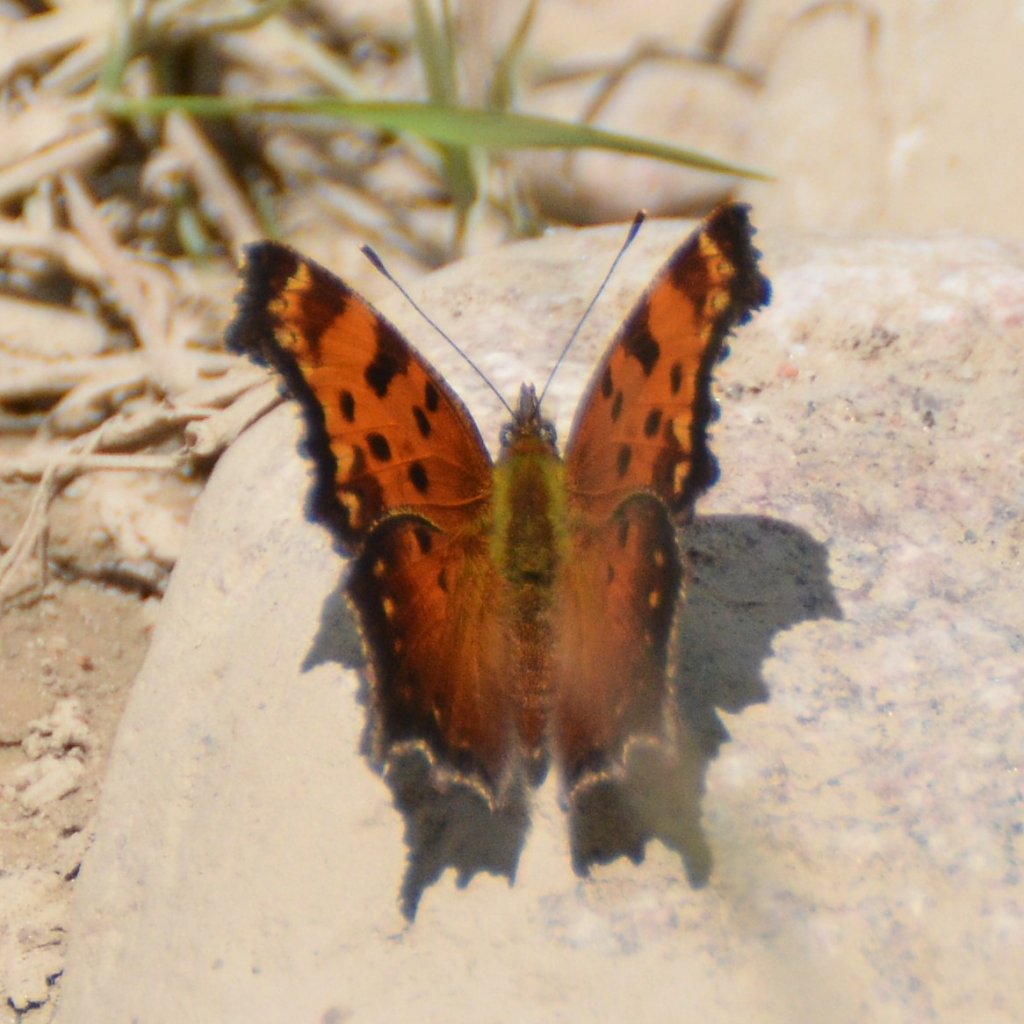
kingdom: Animalia
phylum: Arthropoda
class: Insecta
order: Lepidoptera
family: Nymphalidae
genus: Polygonia
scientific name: Polygonia progne
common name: Gray Comma
